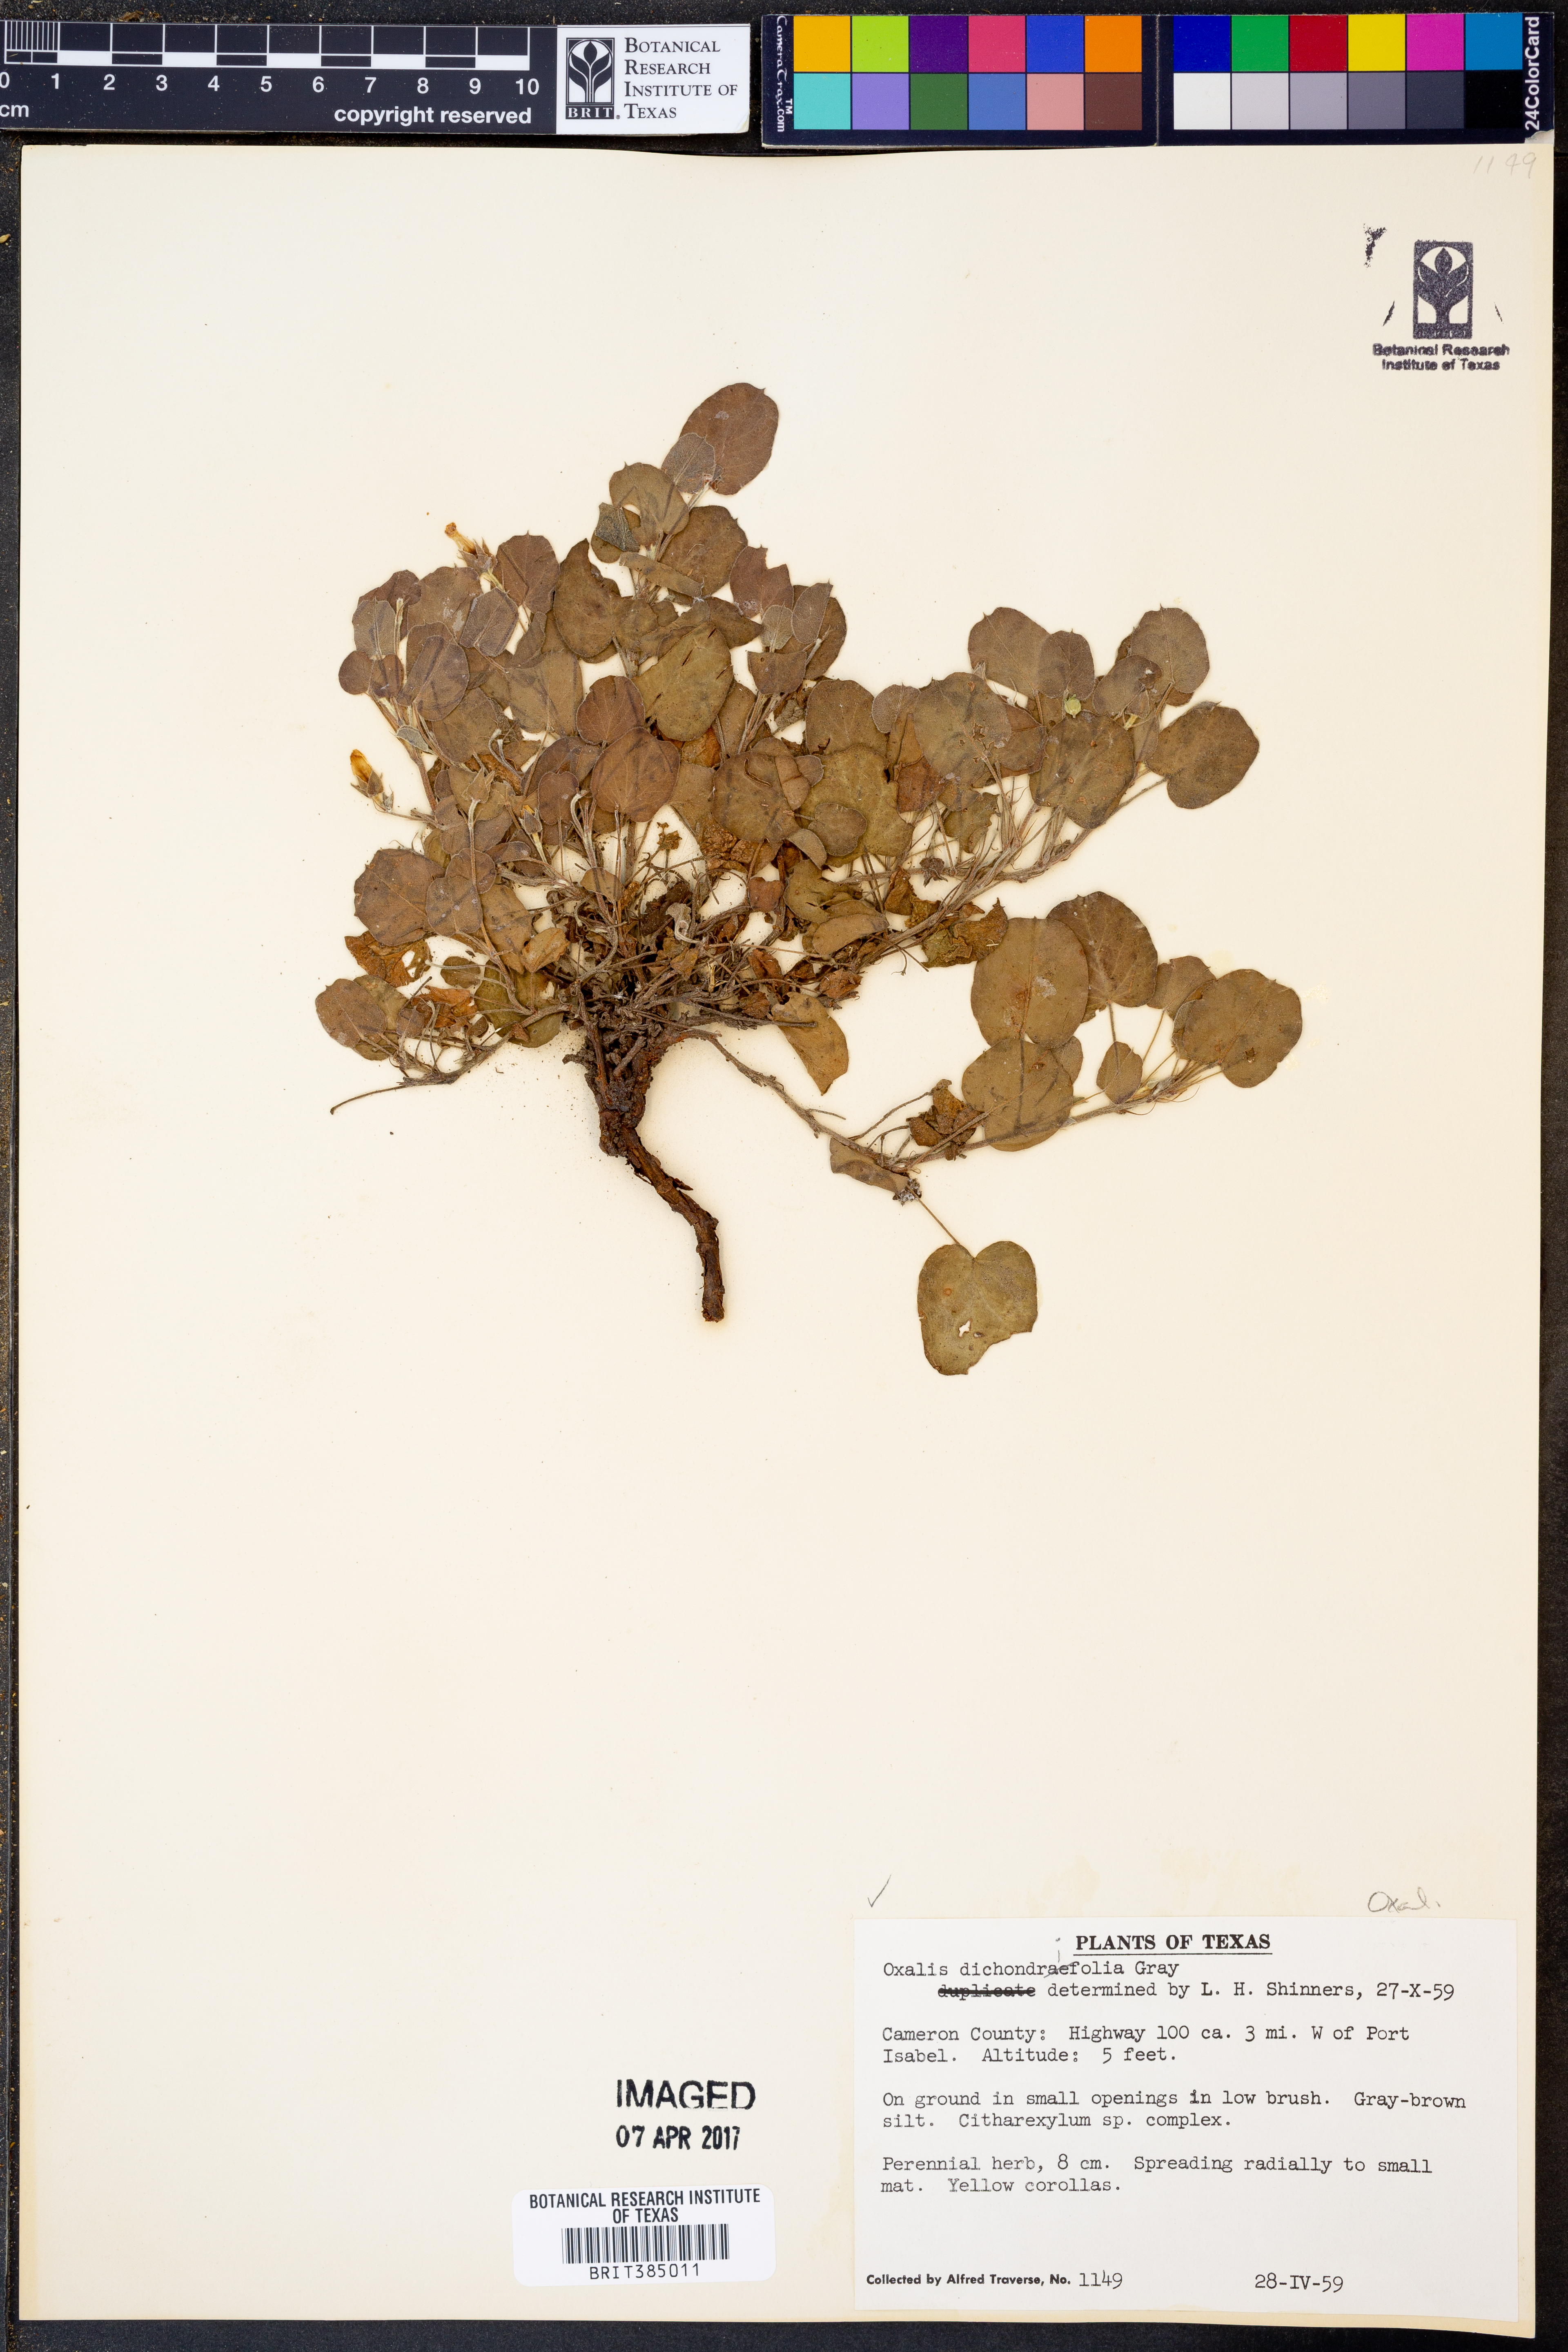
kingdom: Plantae
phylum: Tracheophyta
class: Magnoliopsida
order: Oxalidales
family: Oxalidaceae
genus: Oxalis
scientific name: Oxalis dichondrifolia
